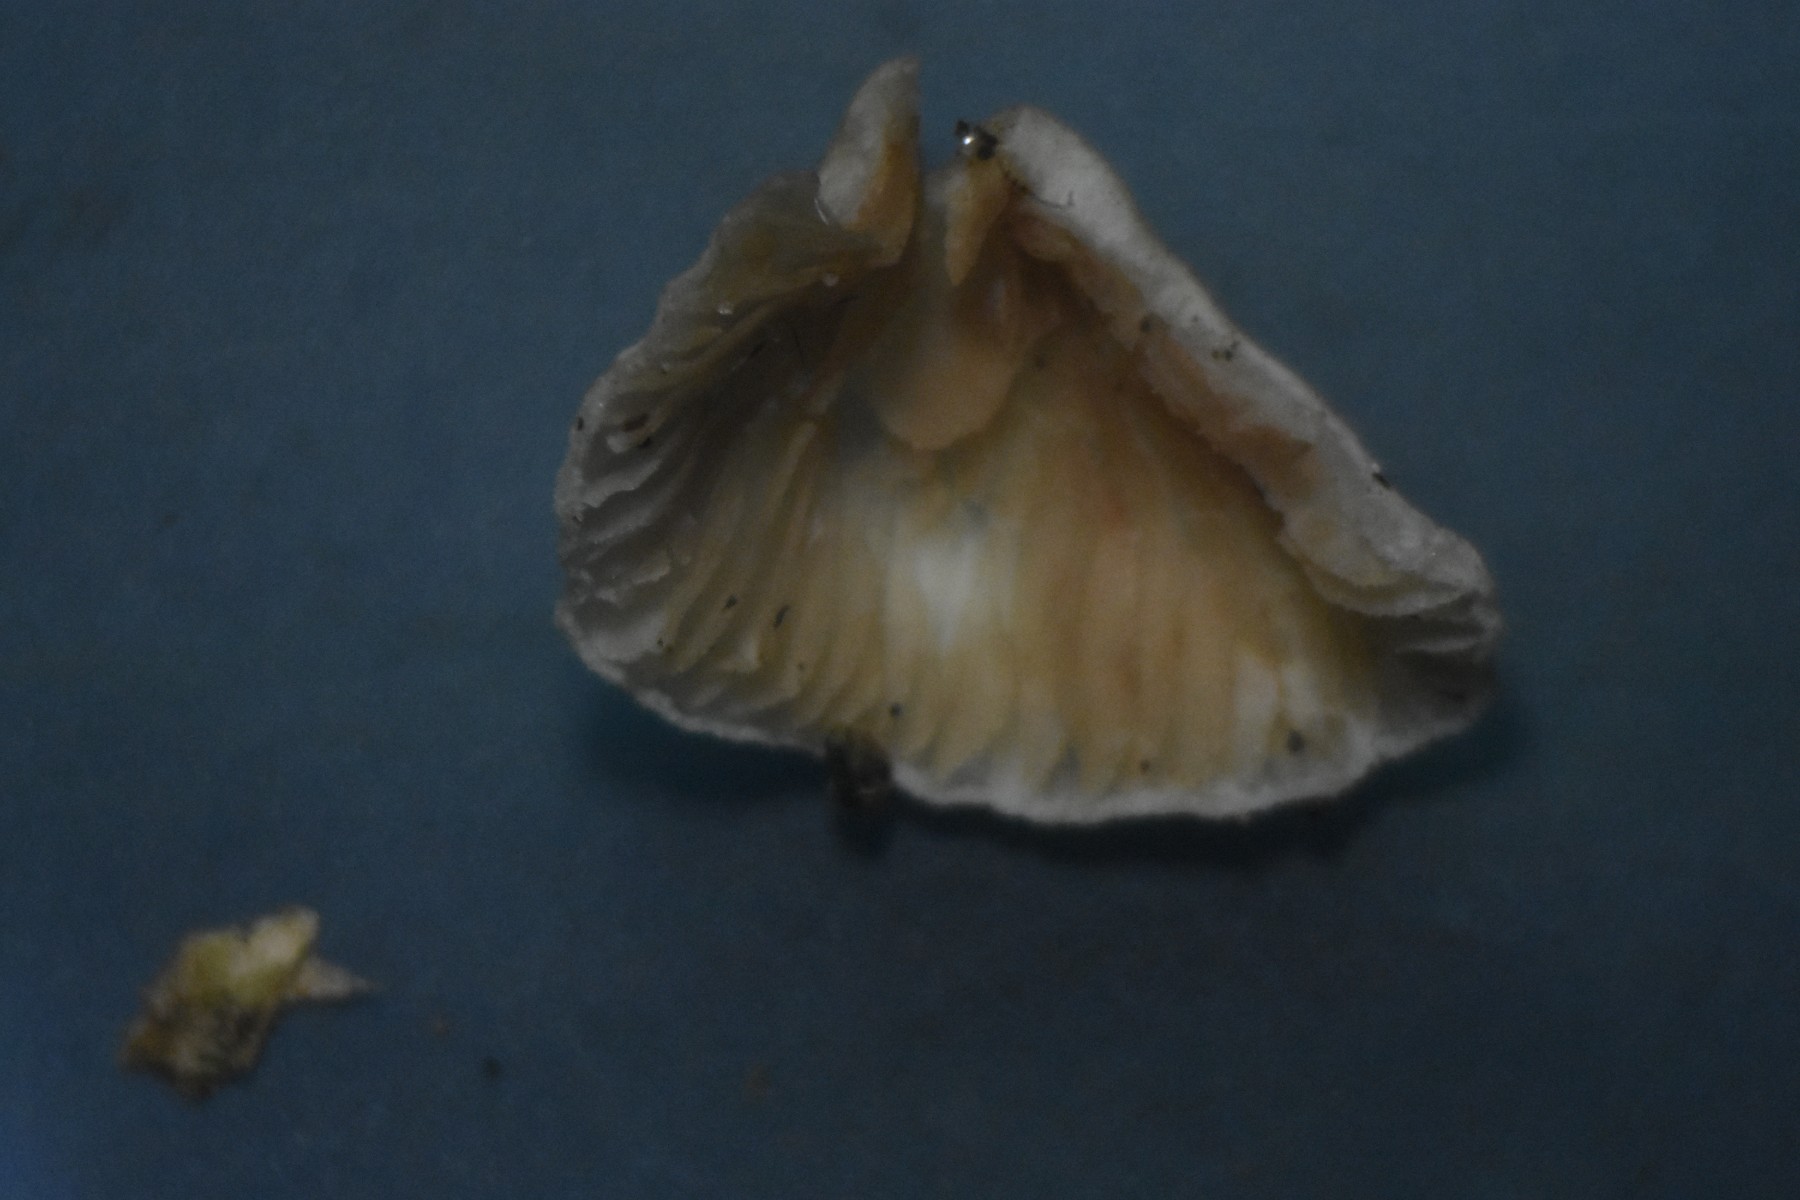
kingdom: Fungi
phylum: Basidiomycota
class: Agaricomycetes
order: Agaricales
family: Crepidotaceae
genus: Crepidotus
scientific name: Crepidotus luteolus
